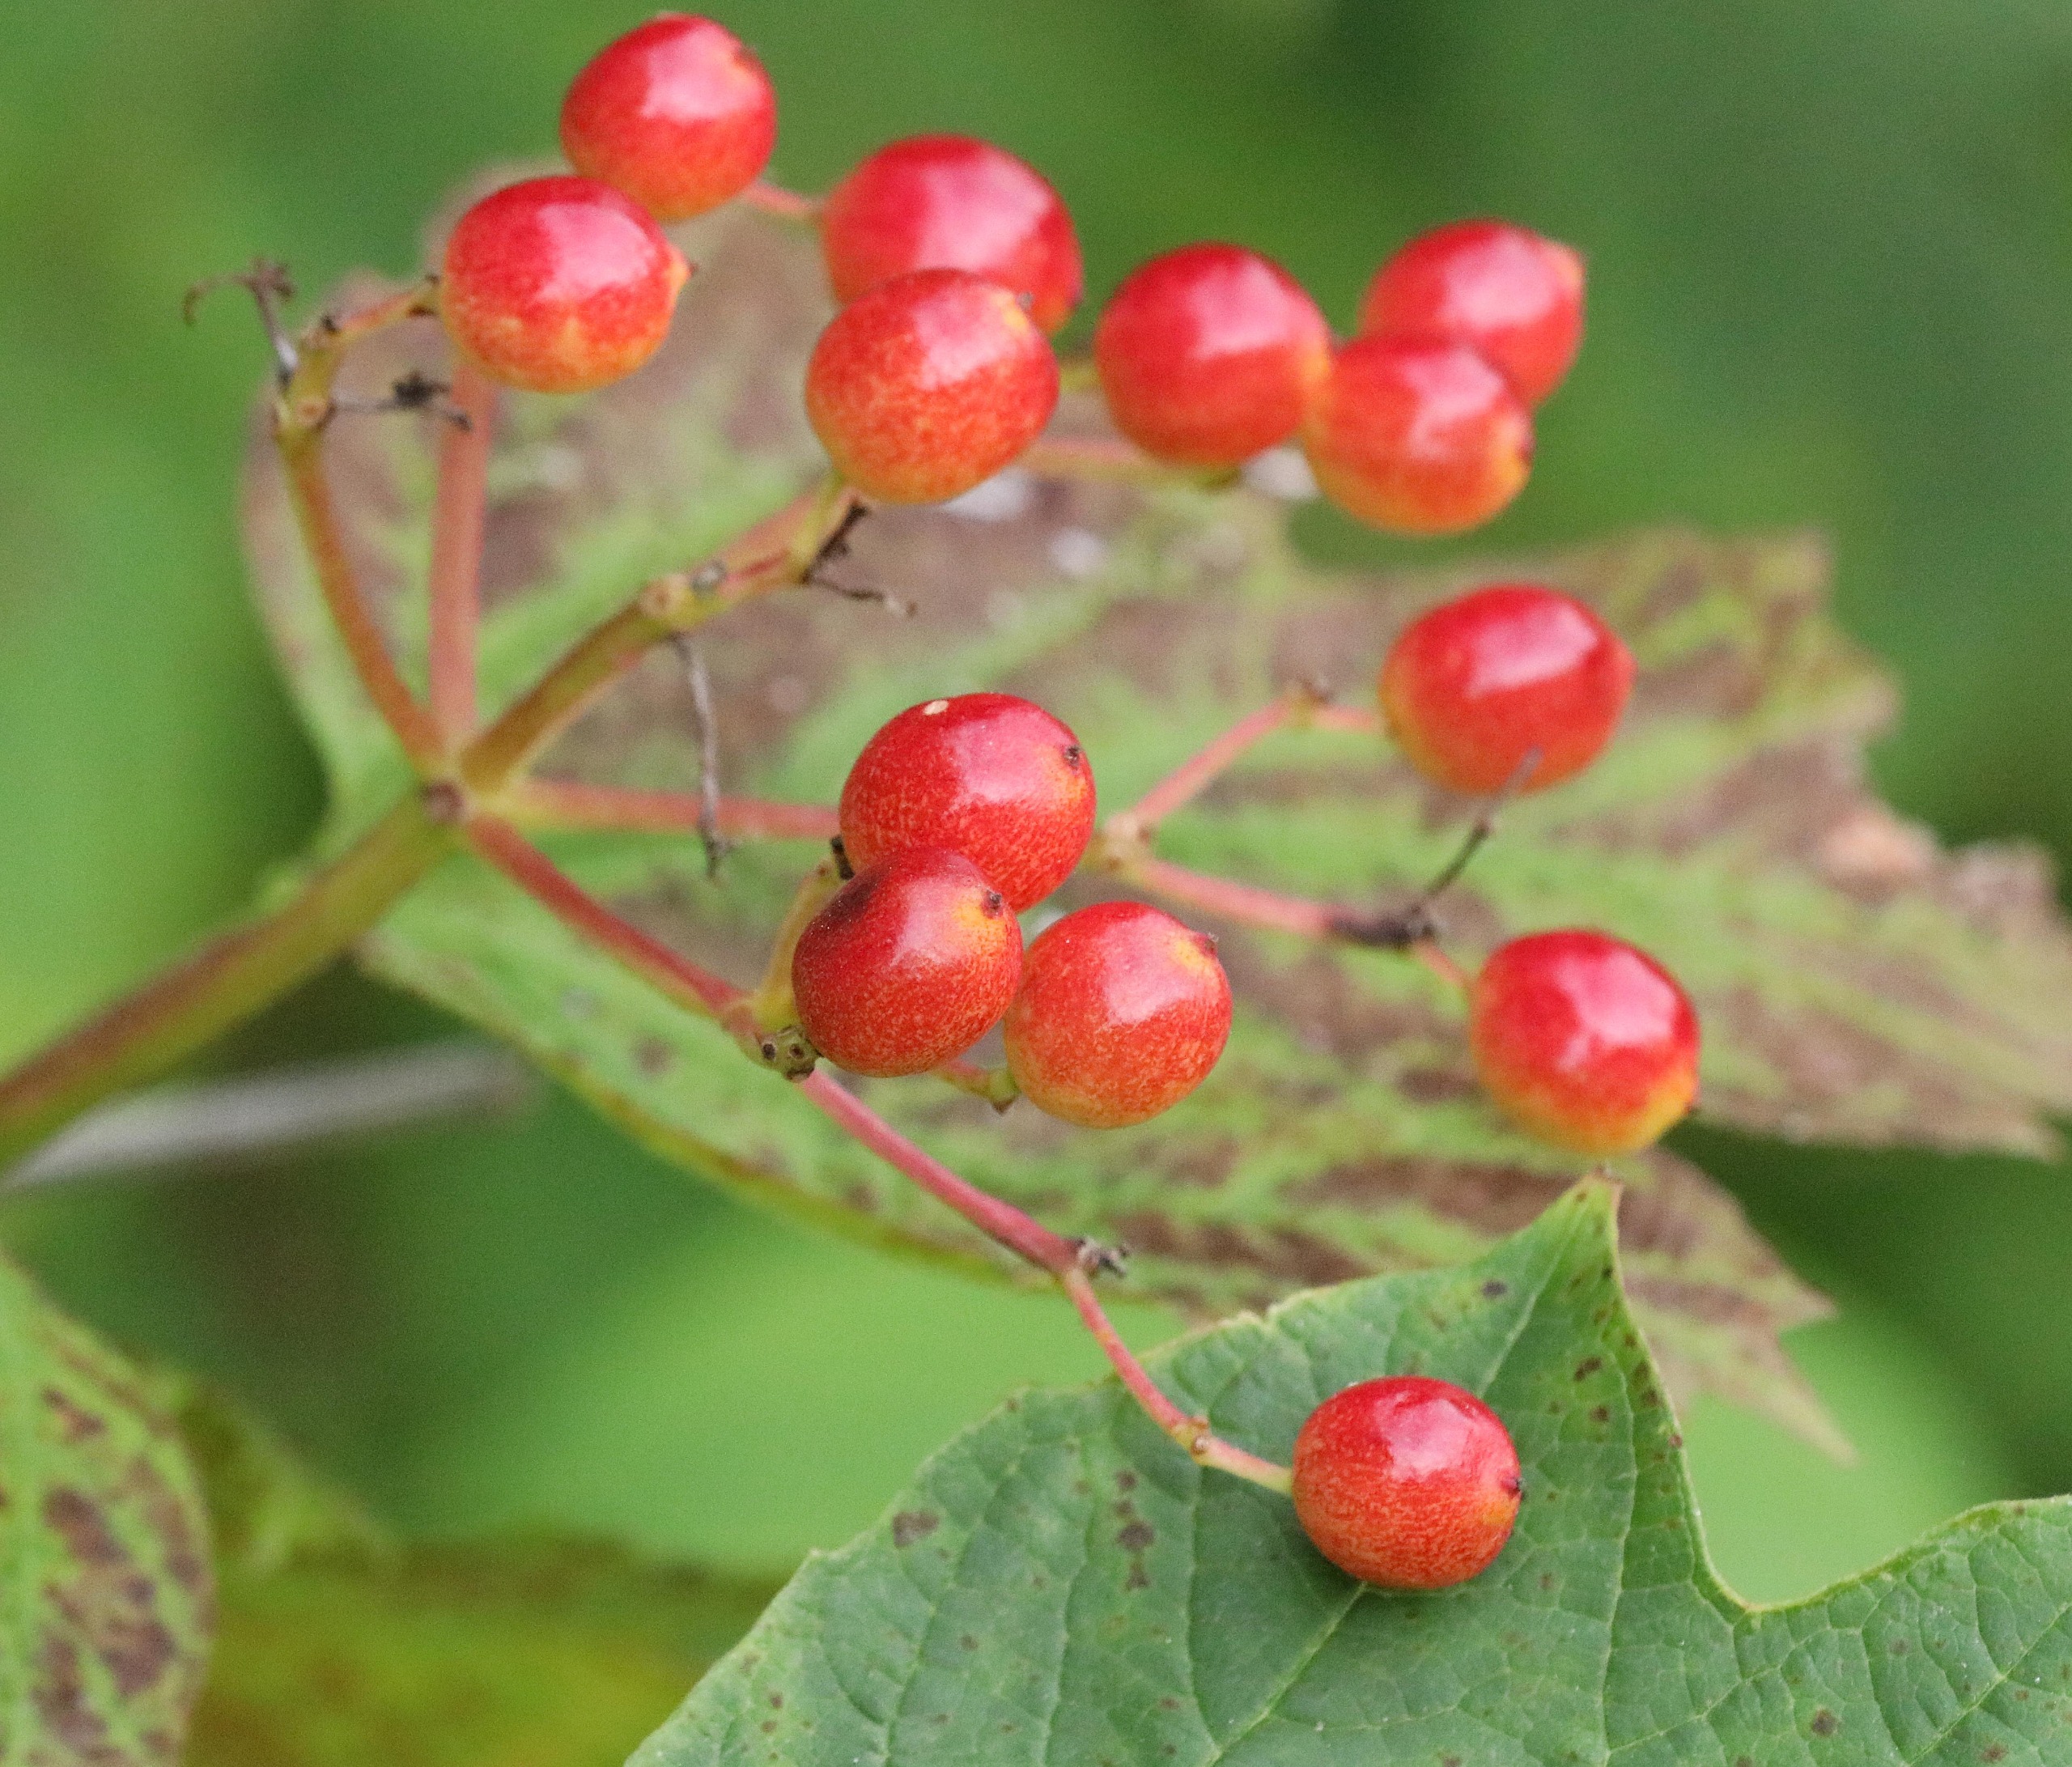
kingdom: Plantae
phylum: Tracheophyta
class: Magnoliopsida
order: Dipsacales
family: Viburnaceae
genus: Viburnum
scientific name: Viburnum opulus
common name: Kvalkved
